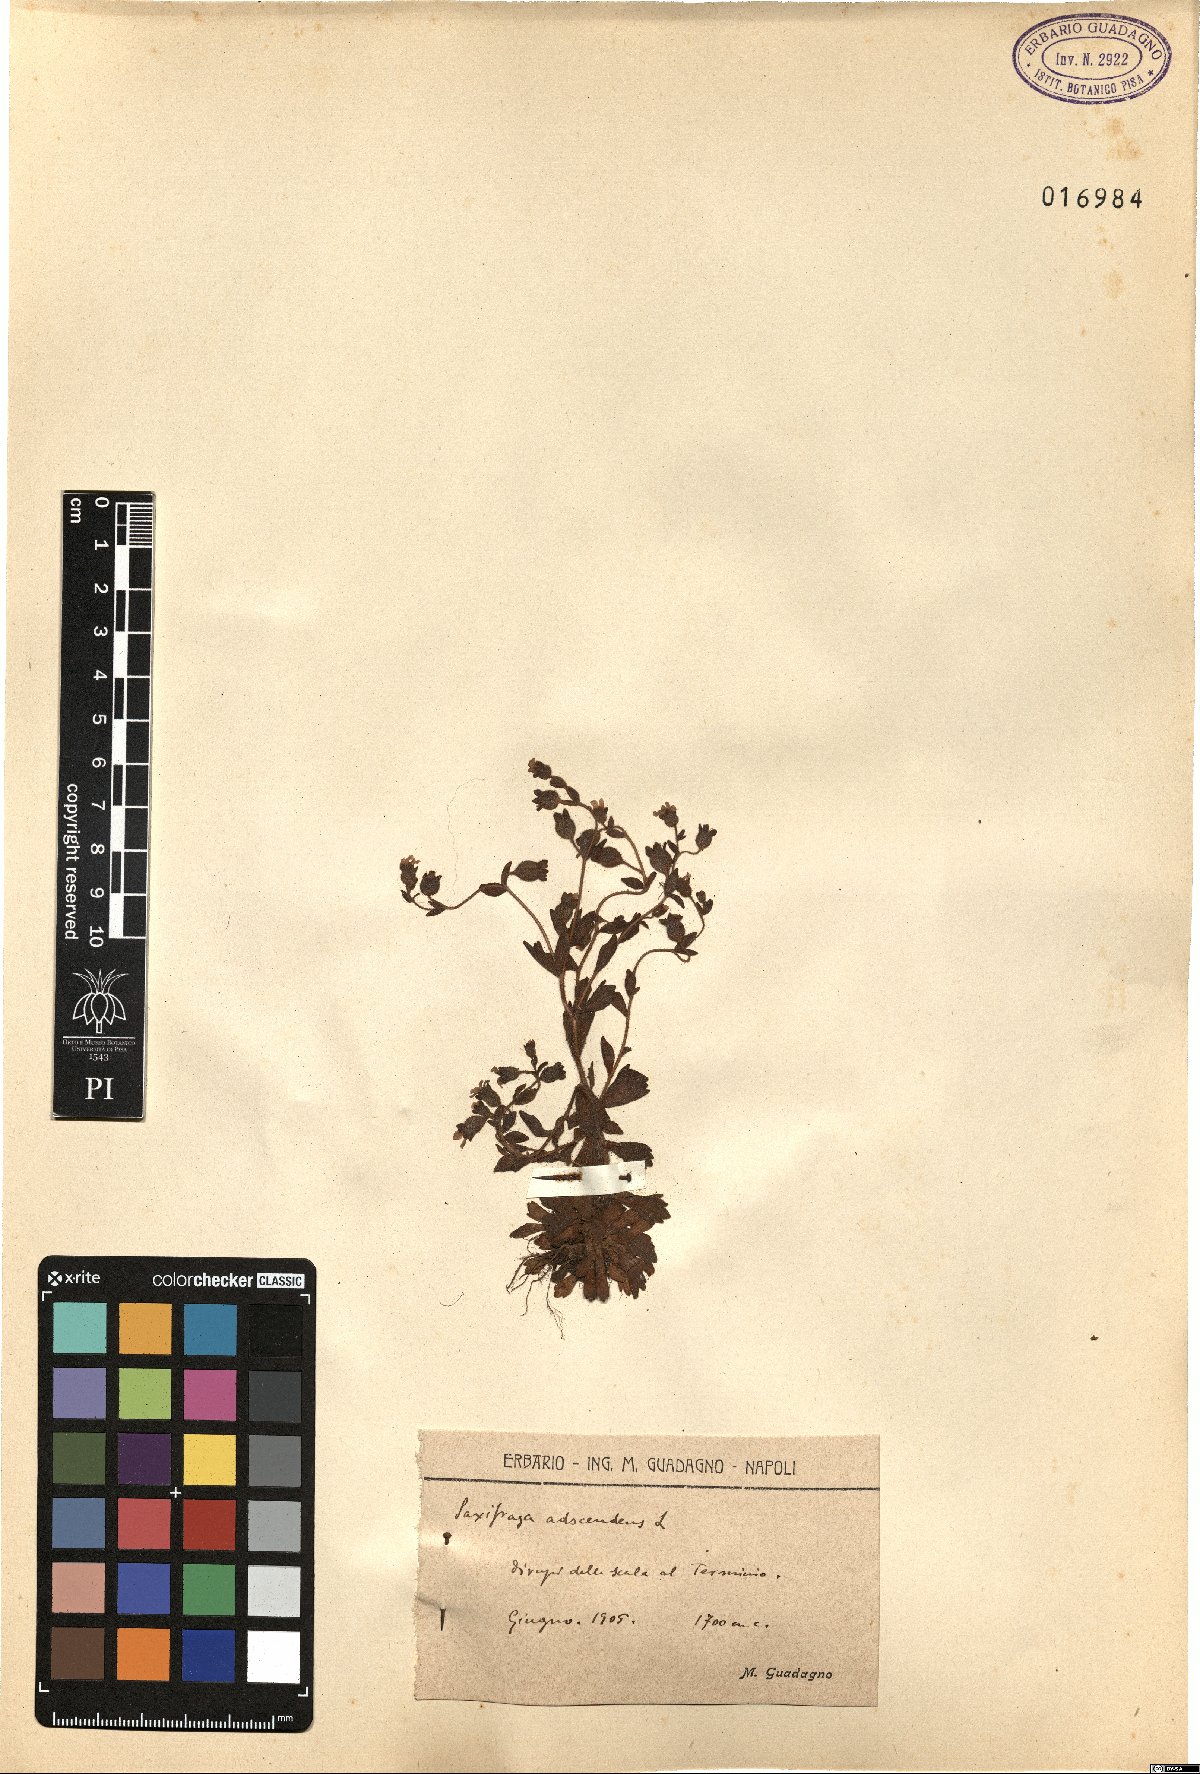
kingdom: Plantae
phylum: Tracheophyta
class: Magnoliopsida
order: Saxifragales
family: Saxifragaceae
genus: Saxifraga
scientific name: Saxifraga adscendens
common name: Ascending saxifrage
